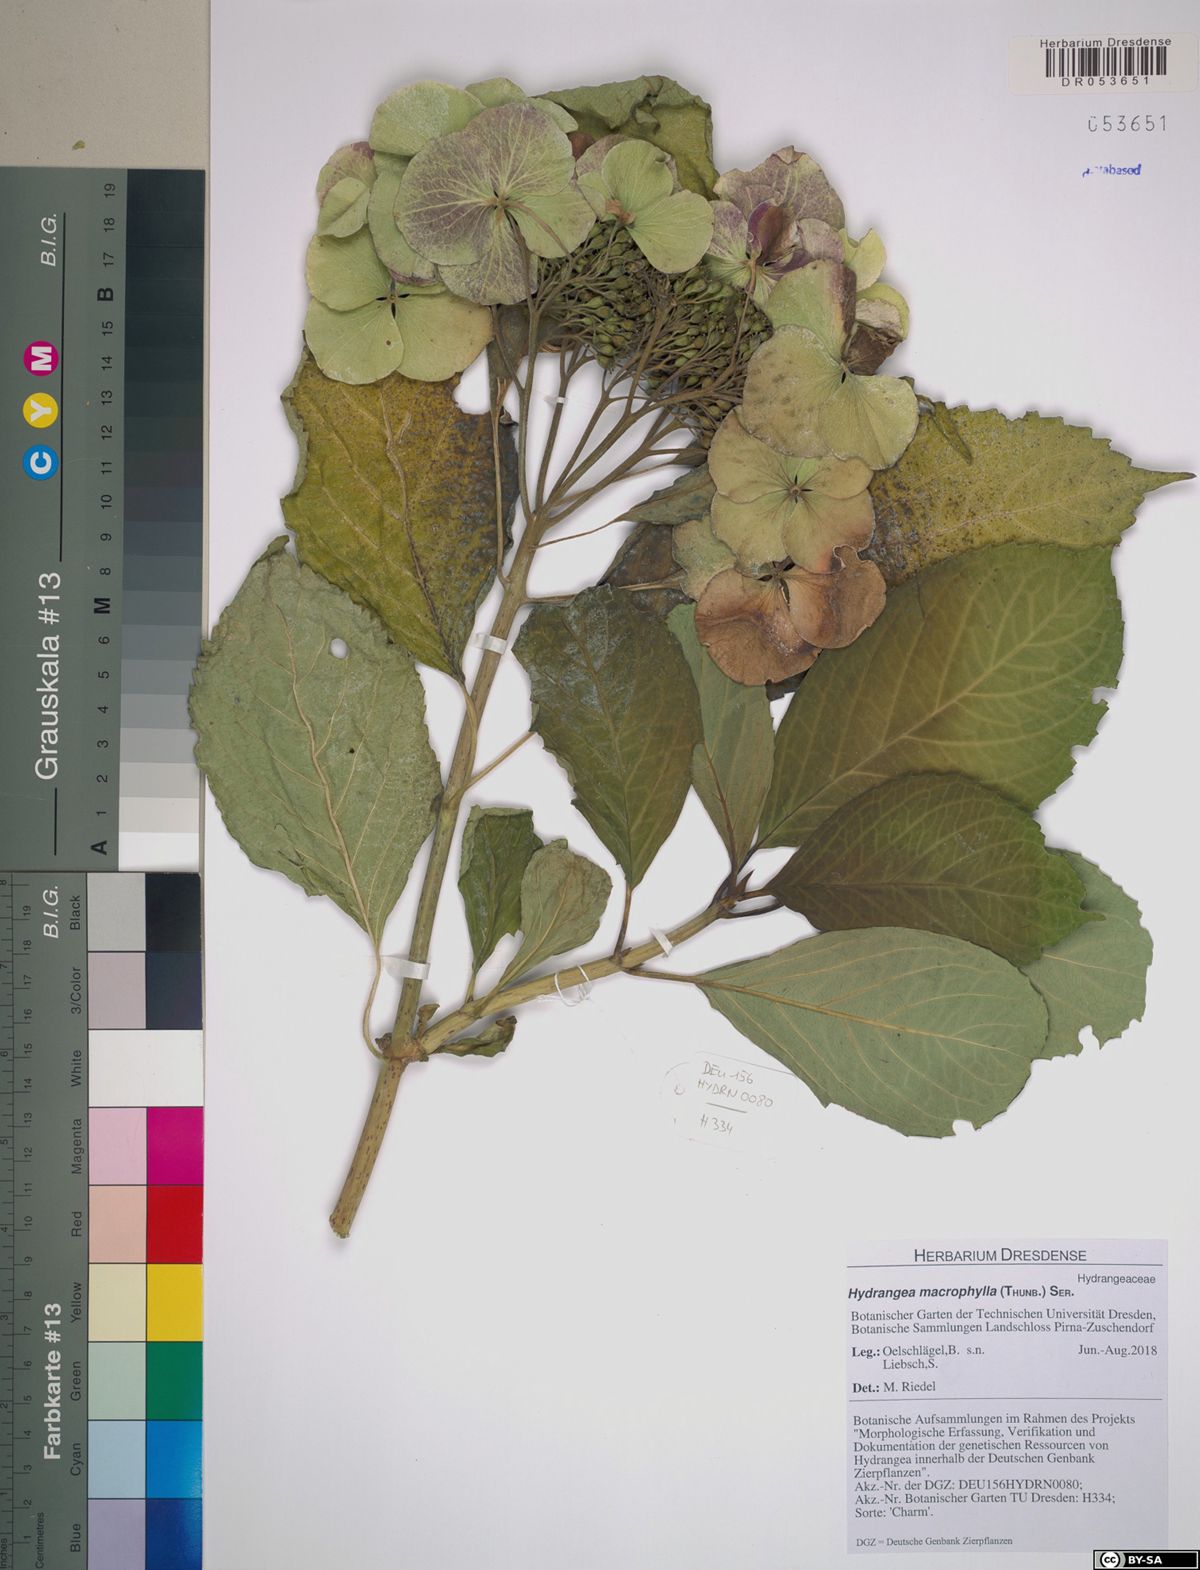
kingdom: Plantae
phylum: Tracheophyta
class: Magnoliopsida
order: Cornales
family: Hydrangeaceae
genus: Hydrangea
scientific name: Hydrangea macrophylla
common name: Hydrangea
